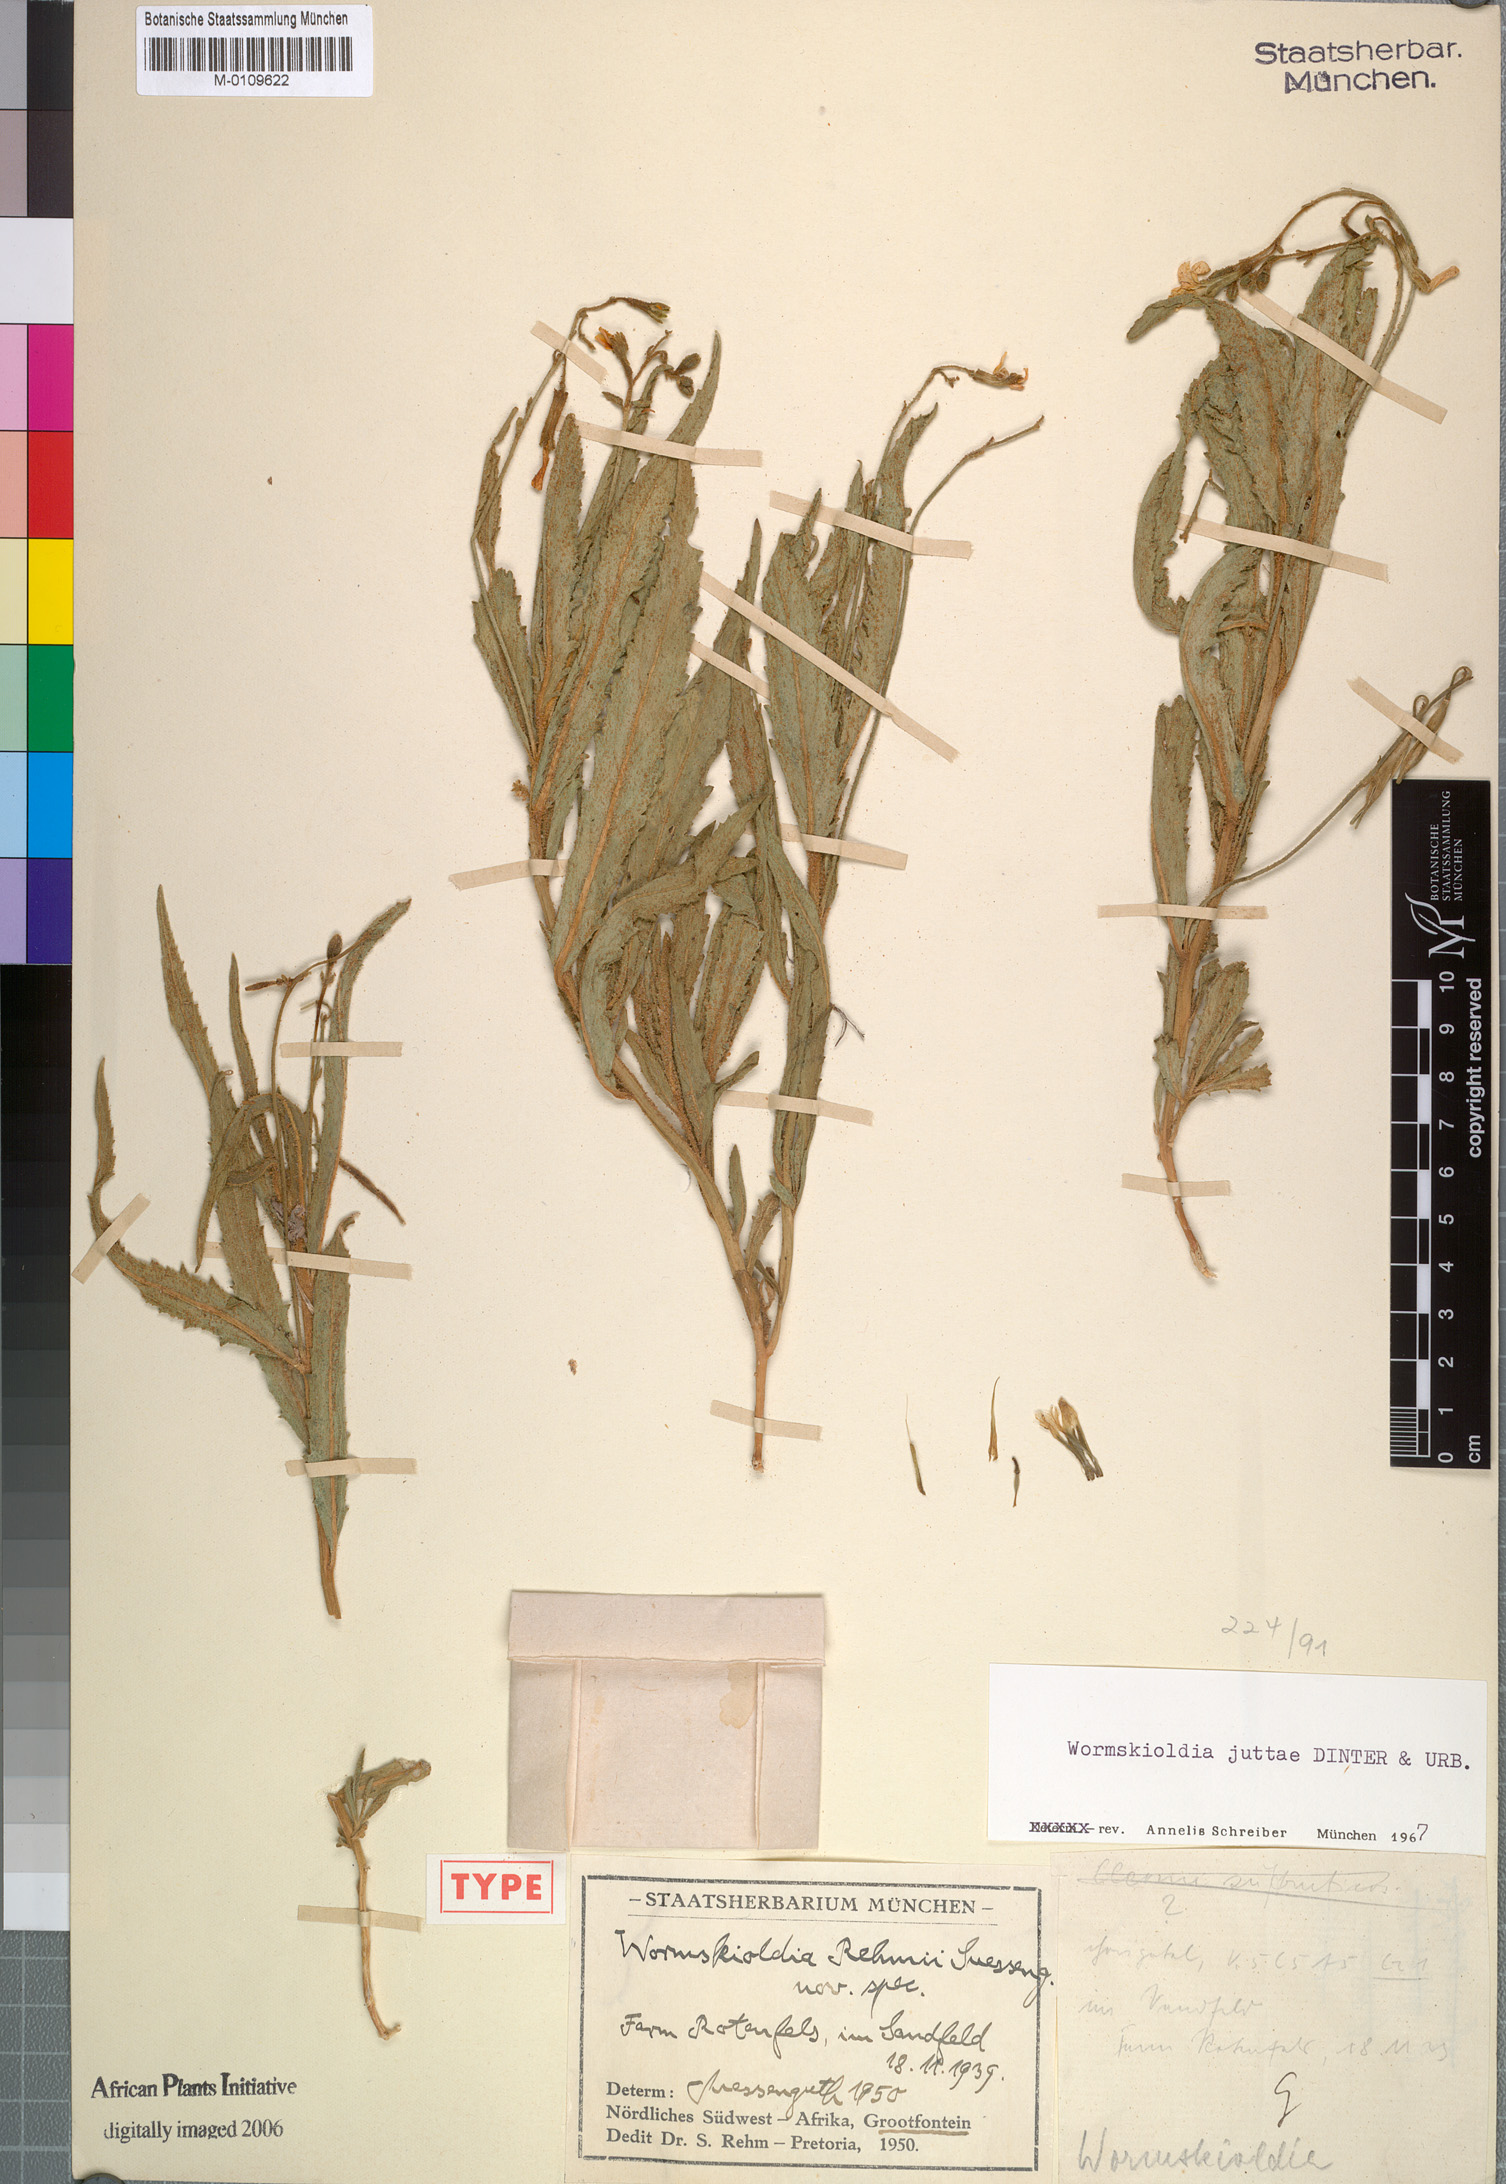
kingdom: Plantae
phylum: Tracheophyta
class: Magnoliopsida
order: Malpighiales
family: Turneraceae
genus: Tricliceras
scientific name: Tricliceras schinzii
